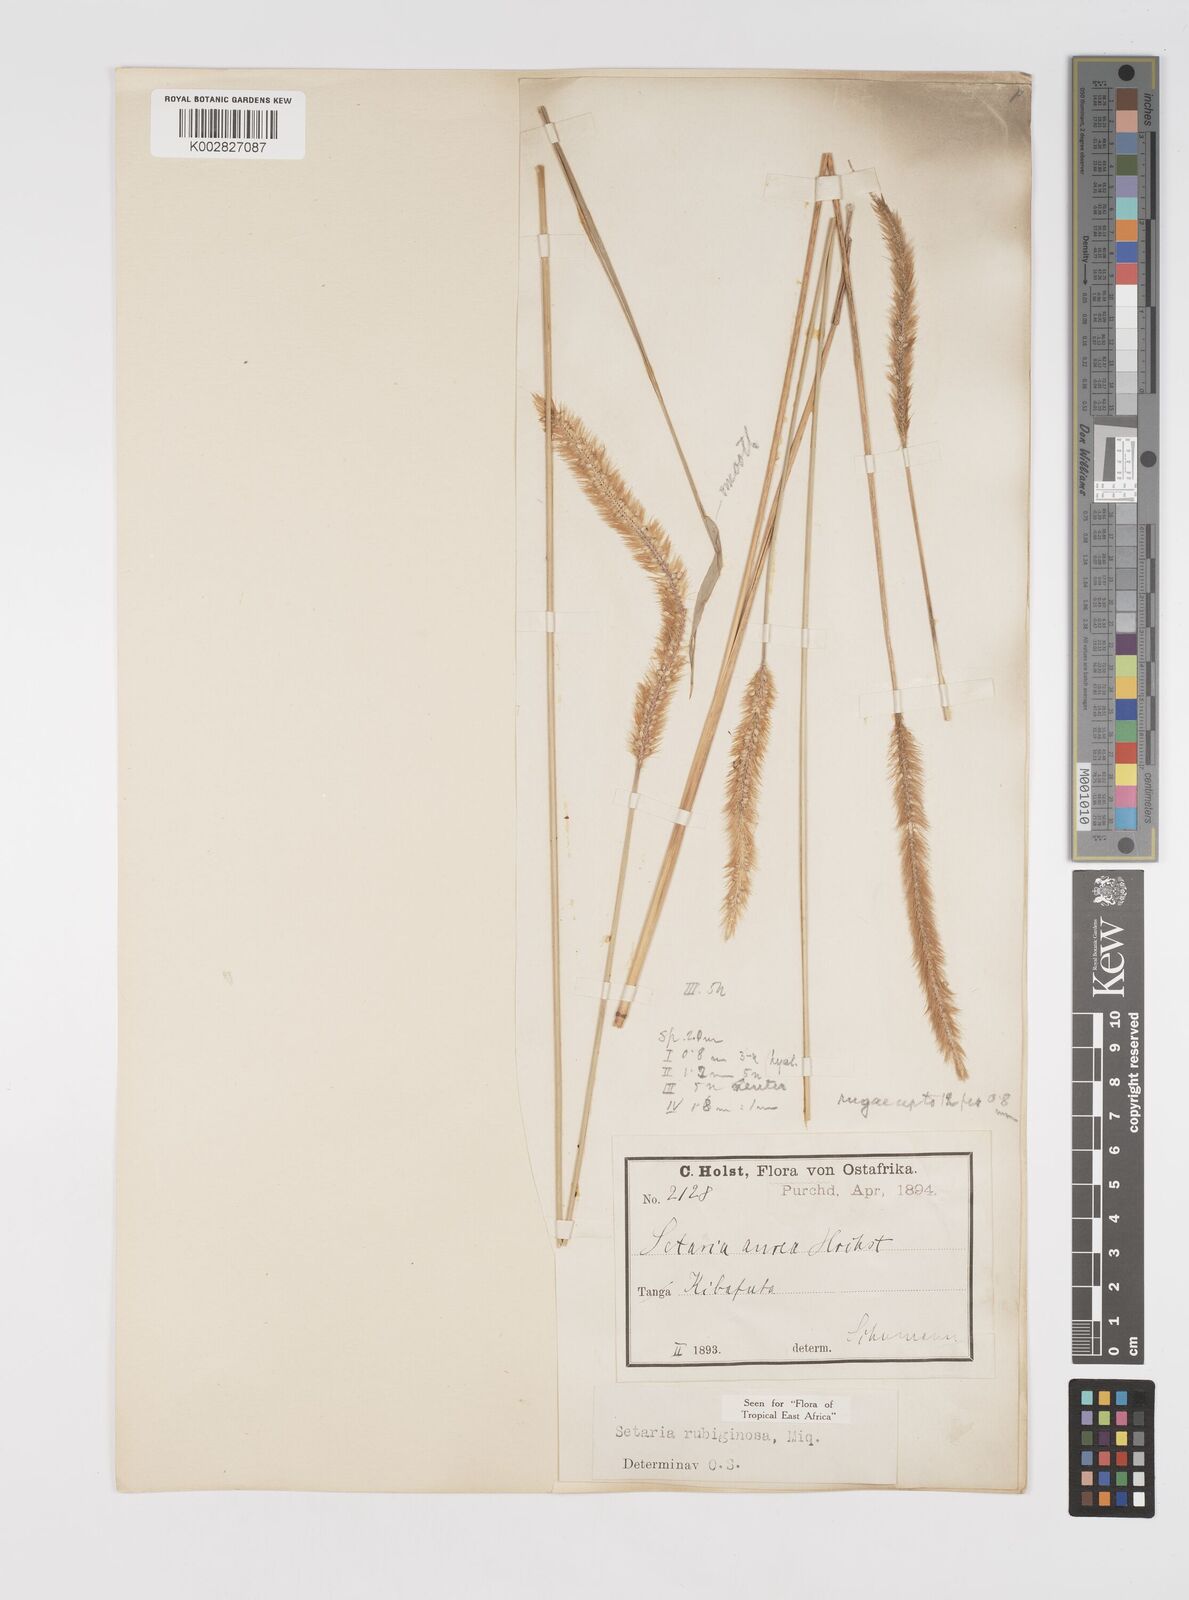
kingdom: Plantae
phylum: Tracheophyta
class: Liliopsida
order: Poales
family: Poaceae
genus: Setaria
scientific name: Setaria pumila
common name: Yellow bristle-grass
